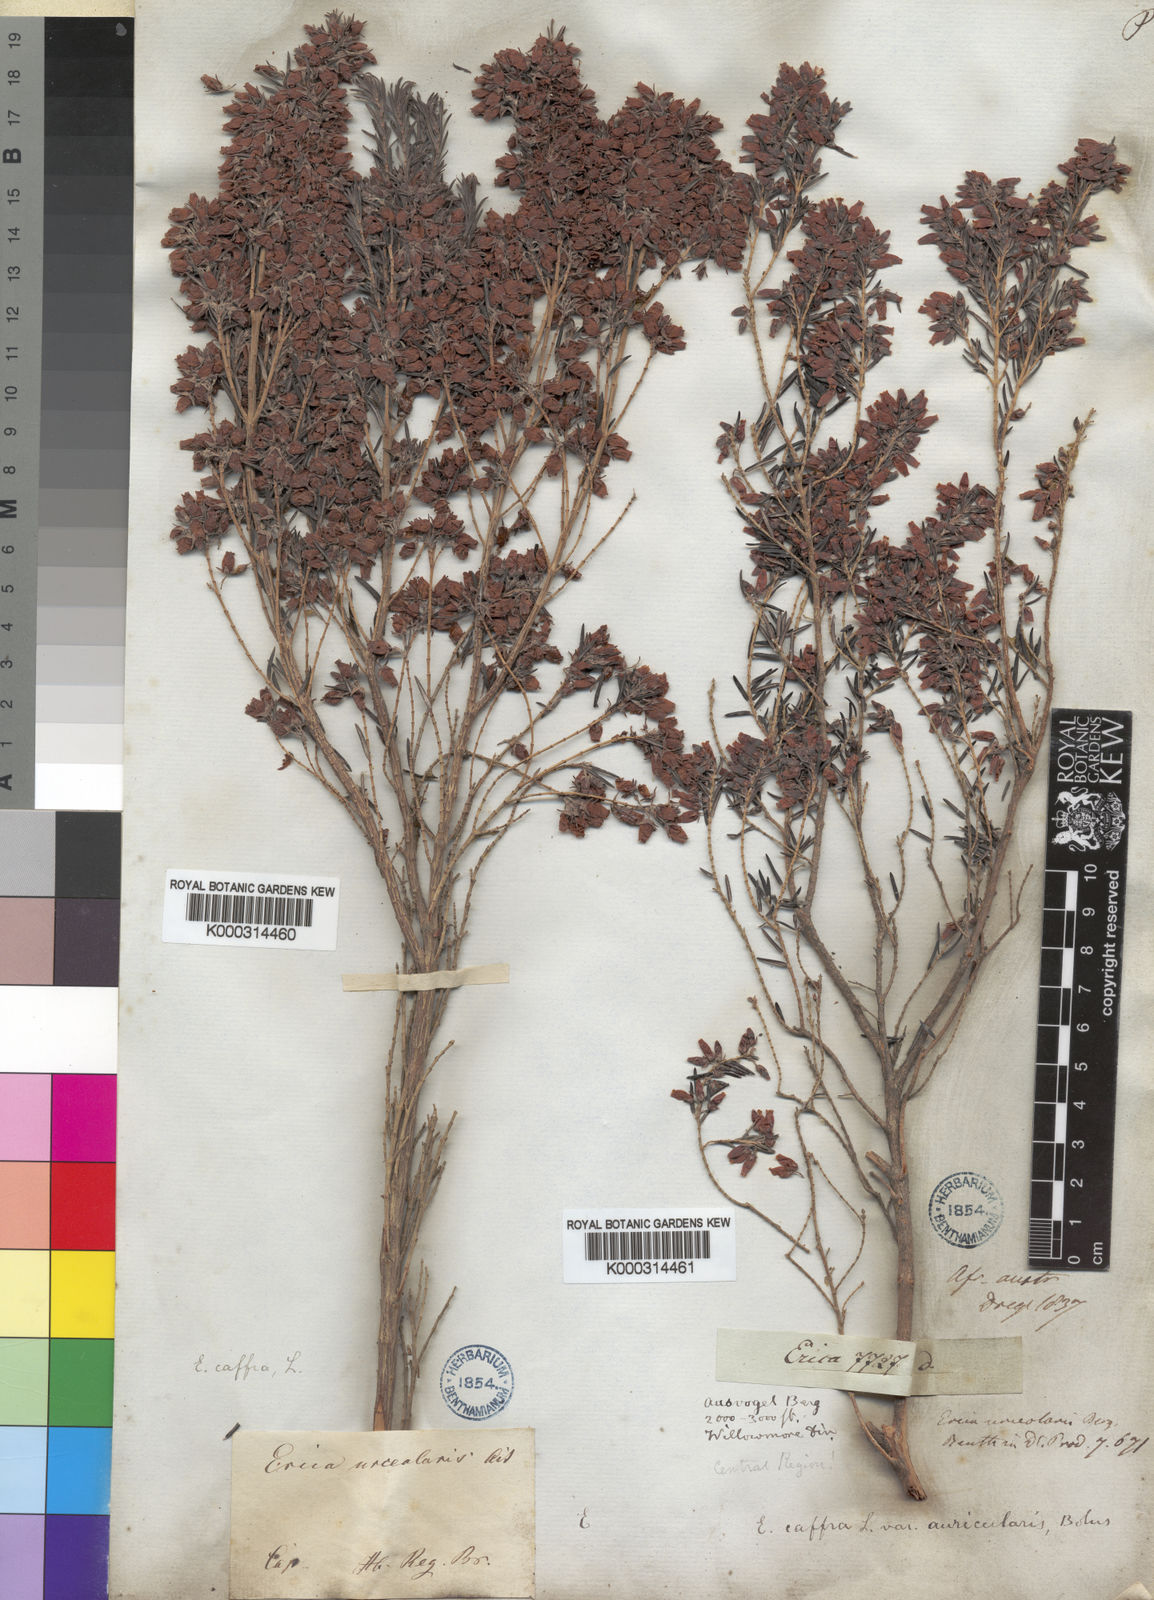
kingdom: Plantae
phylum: Tracheophyta
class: Magnoliopsida
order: Ericales
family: Ericaceae
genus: Erica
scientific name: Erica caffra
